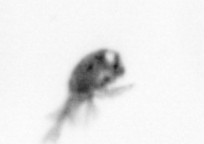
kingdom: Animalia
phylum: Arthropoda
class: Copepoda
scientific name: Copepoda
